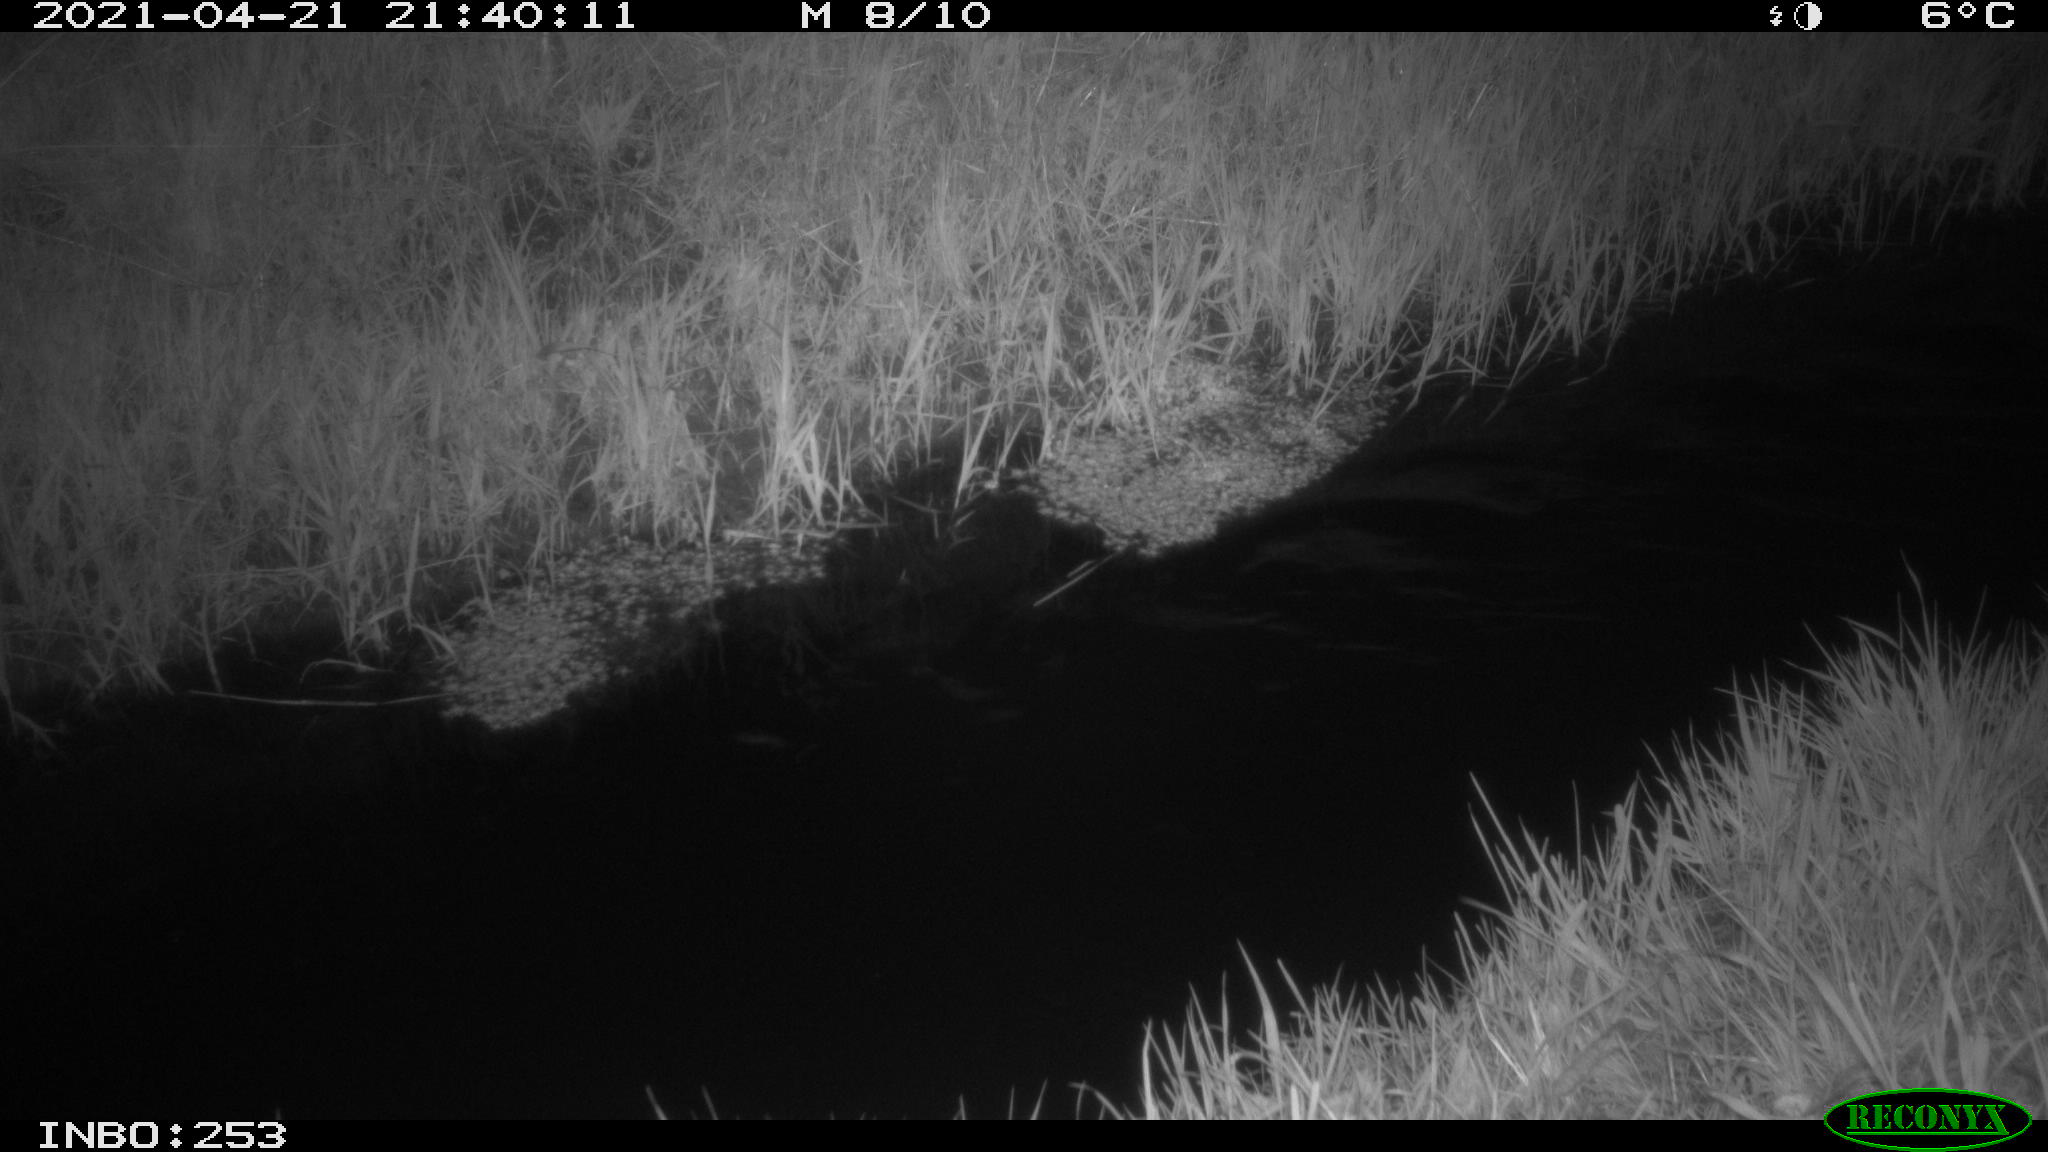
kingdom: Animalia
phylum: Chordata
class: Aves
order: Anseriformes
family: Anatidae
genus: Anas
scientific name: Anas platyrhynchos
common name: Mallard
